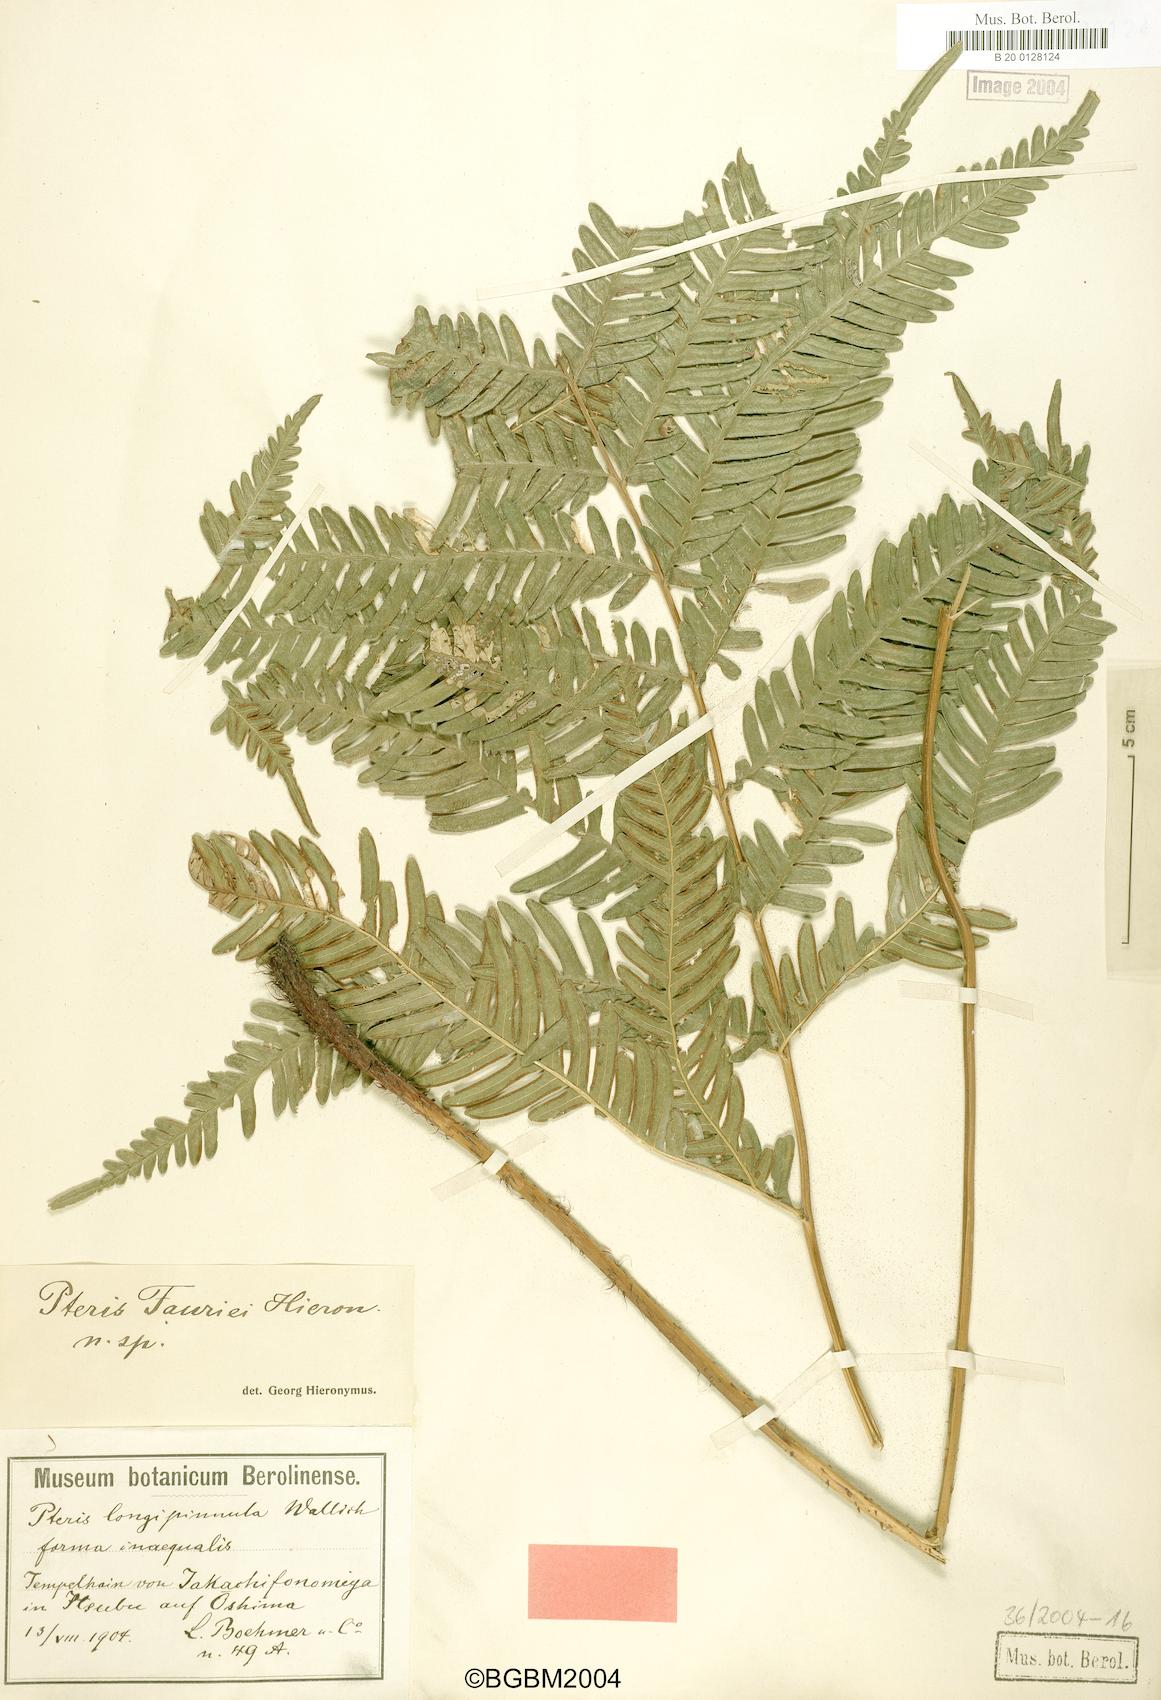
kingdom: Plantae
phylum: Tracheophyta
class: Polypodiopsida
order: Polypodiales
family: Pteridaceae
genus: Pteris
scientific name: Pteris fauriei
